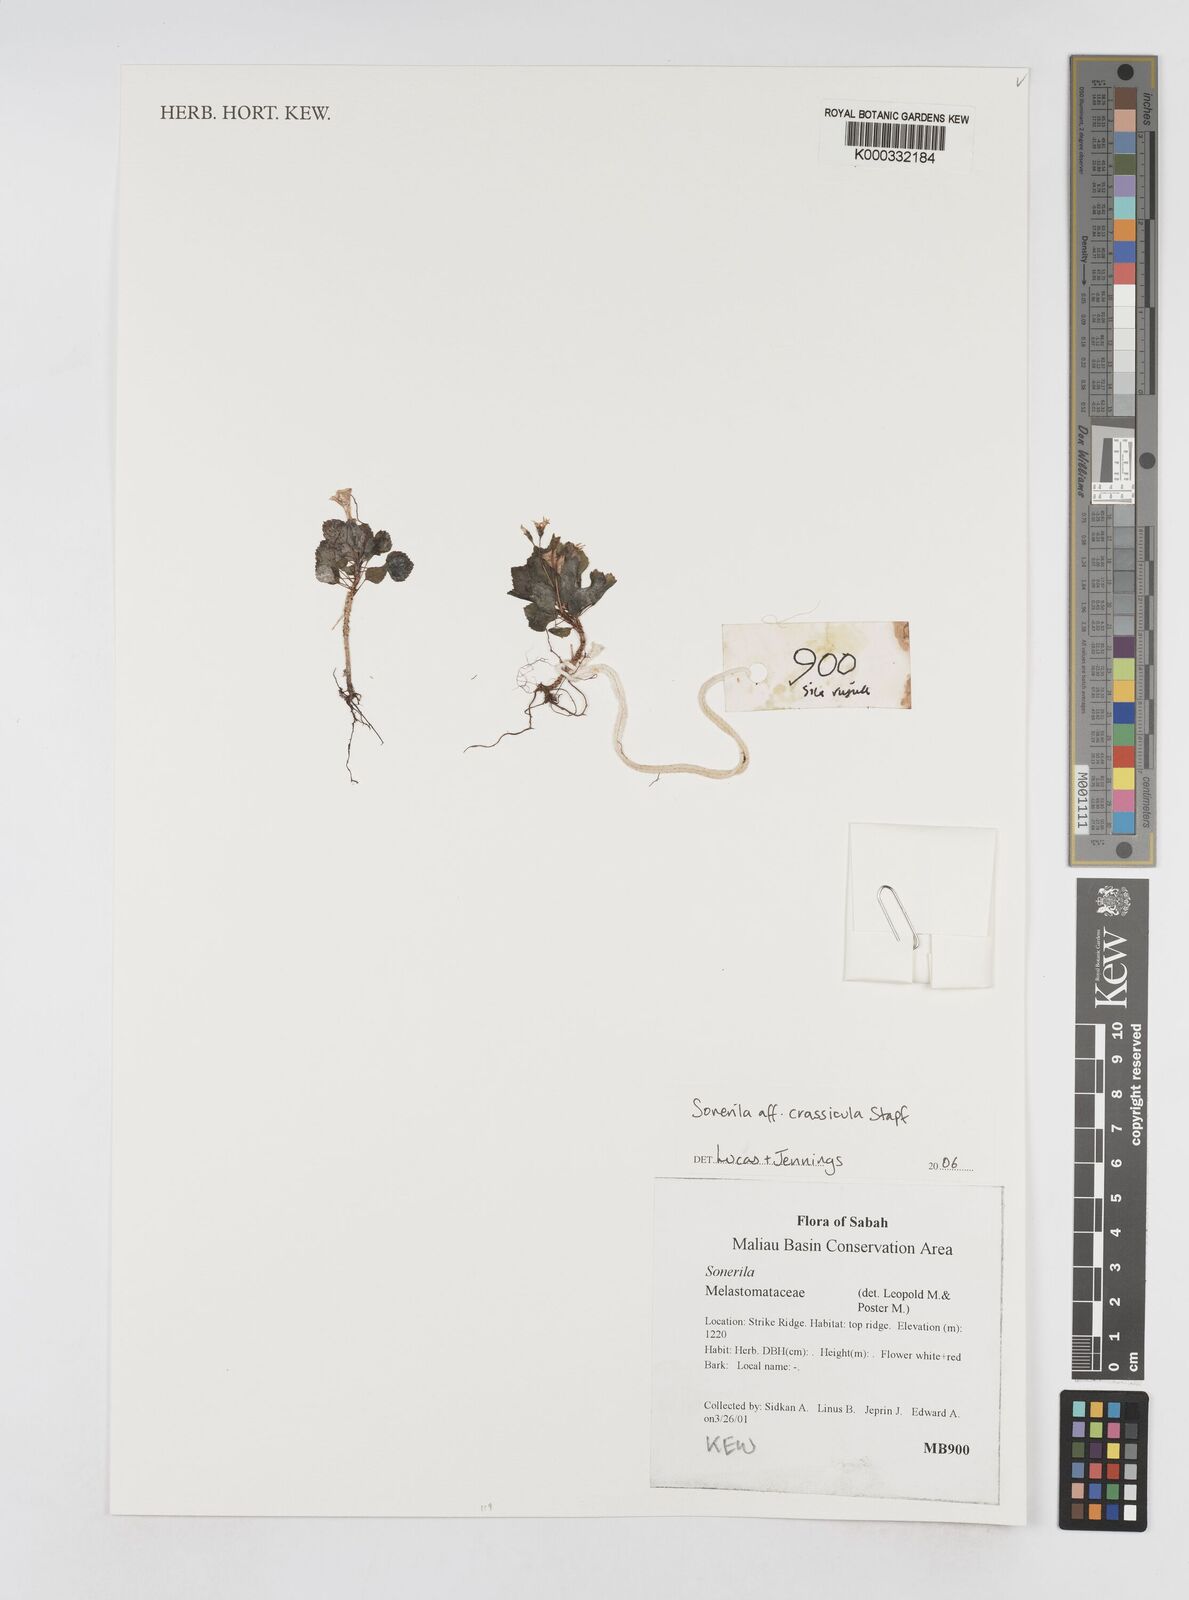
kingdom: Plantae
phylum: Tracheophyta
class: Magnoliopsida
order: Myrtales
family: Melastomataceae
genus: Sonerila
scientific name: Sonerila
